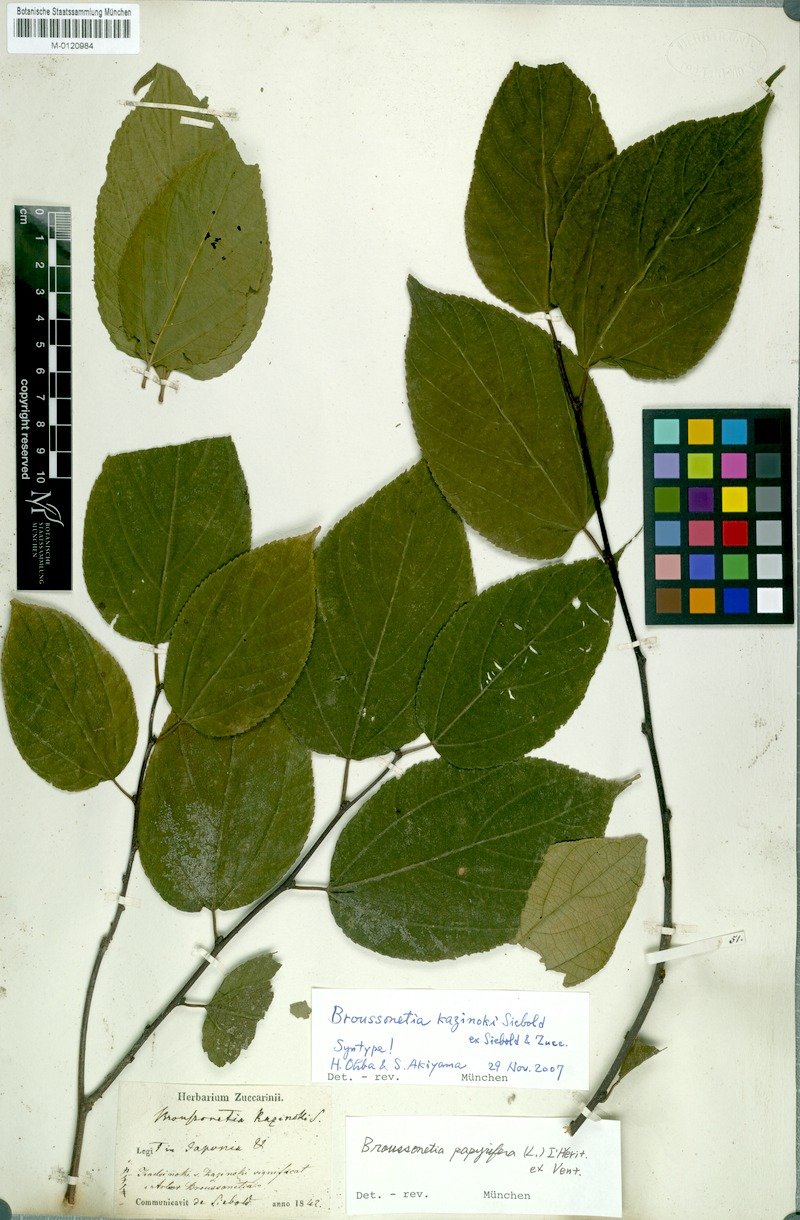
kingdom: Plantae
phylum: Tracheophyta
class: Magnoliopsida
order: Rosales
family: Moraceae
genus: Broussonetia
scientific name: Broussonetia kazinoki
